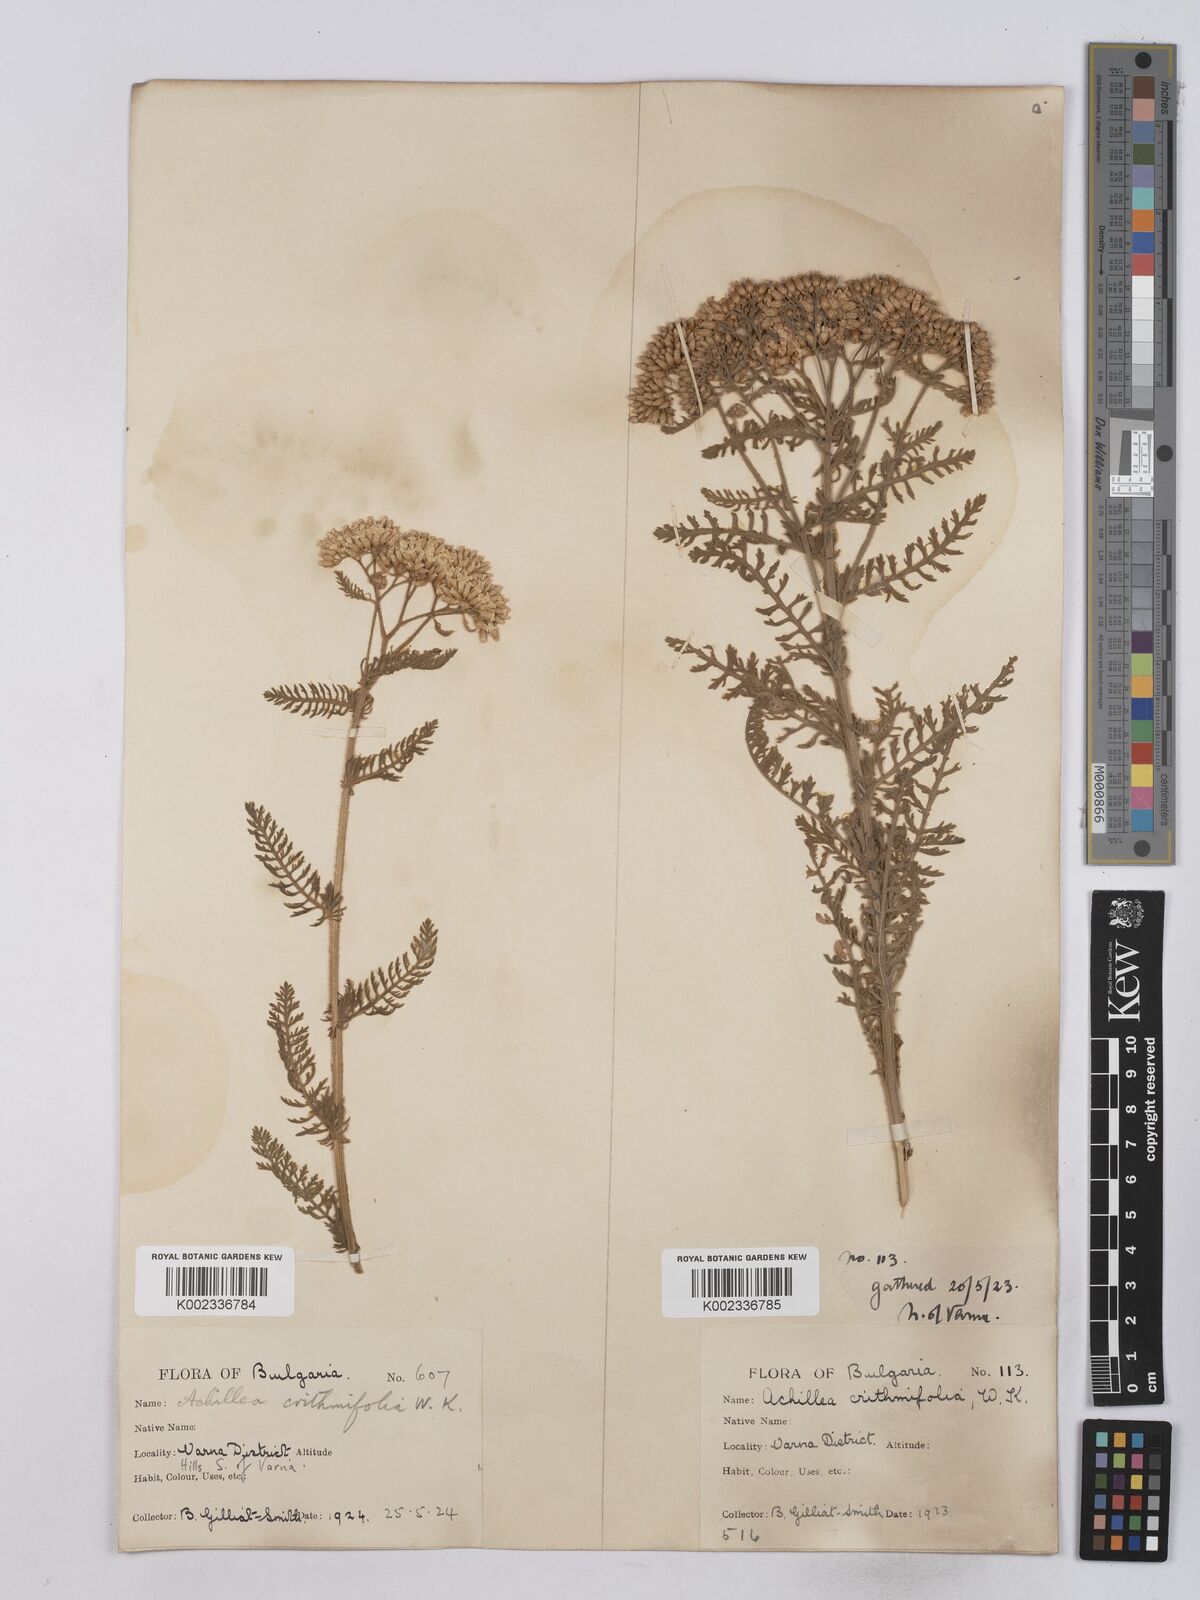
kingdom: Plantae
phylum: Tracheophyta
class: Magnoliopsida
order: Asterales
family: Asteraceae
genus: Achillea
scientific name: Achillea crithmifolia
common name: Yarrow
